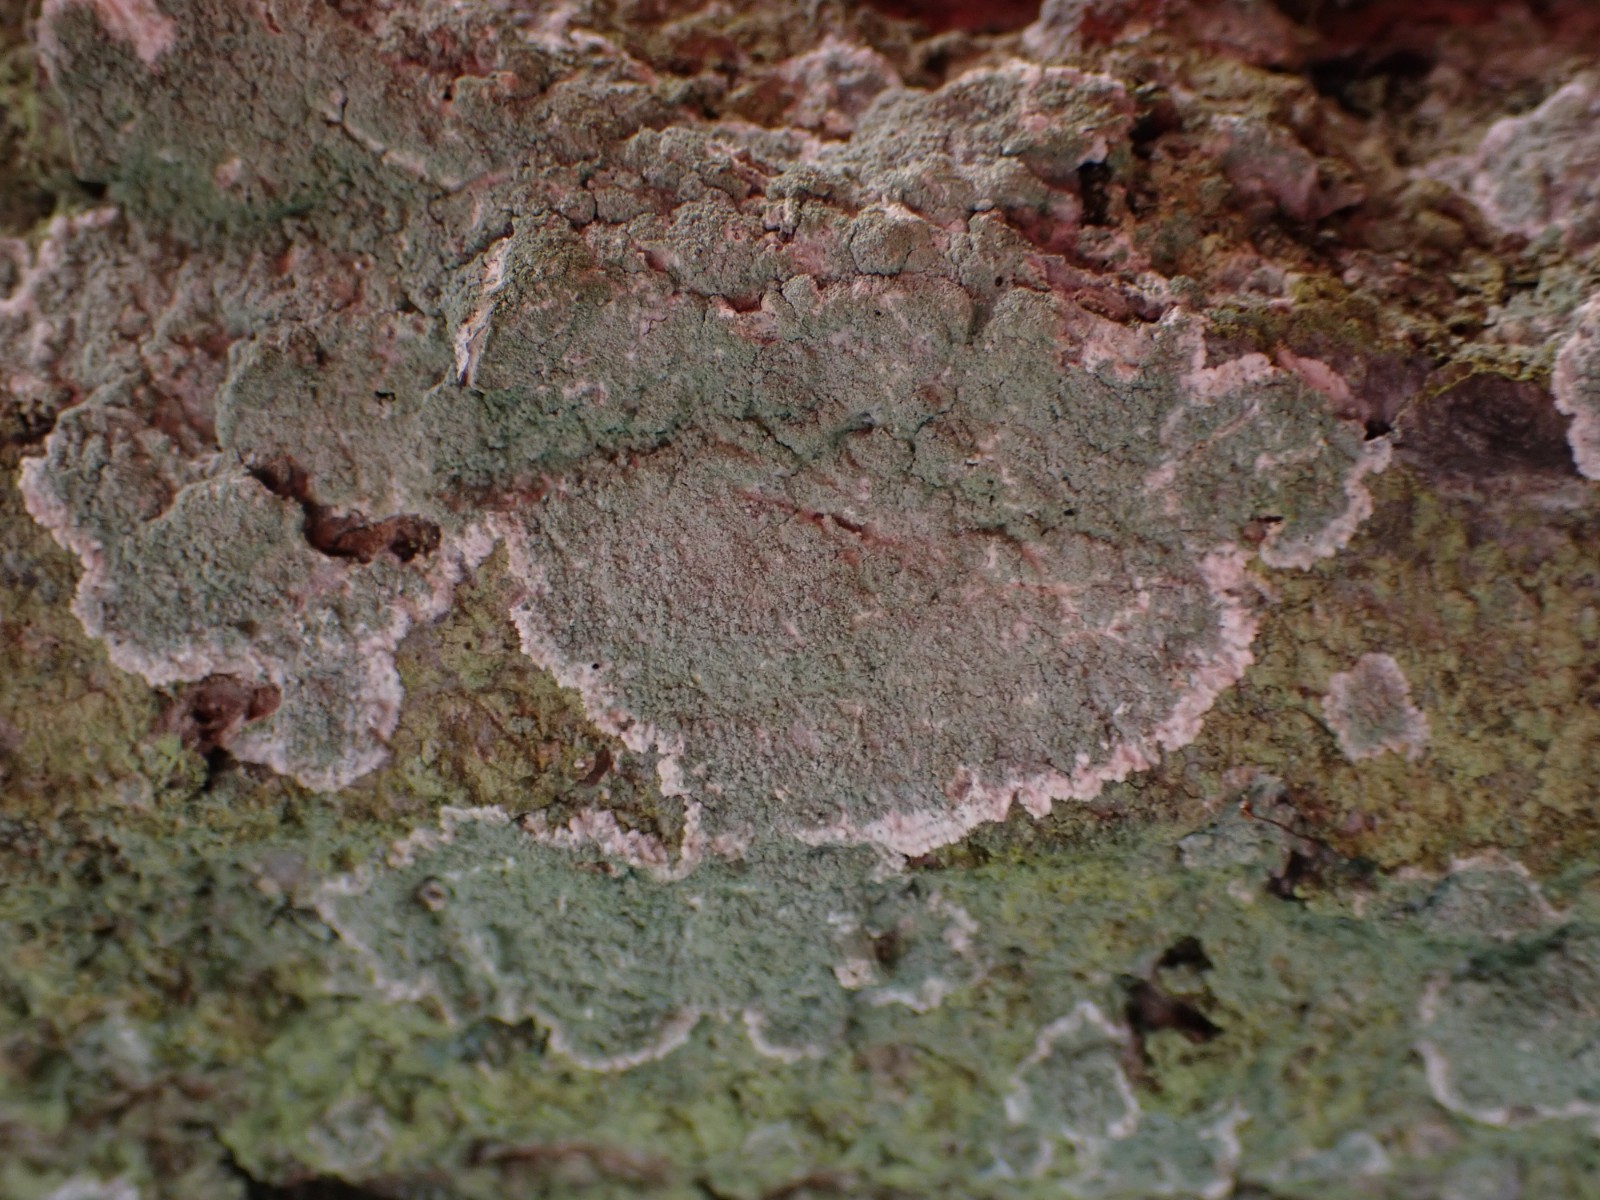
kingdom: Fungi
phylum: Ascomycota
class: Lecanoromycetes
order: Lecanorales
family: Haematommataceae
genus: Haematomma
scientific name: Haematomma ochroleucum
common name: gul trådkantlav
